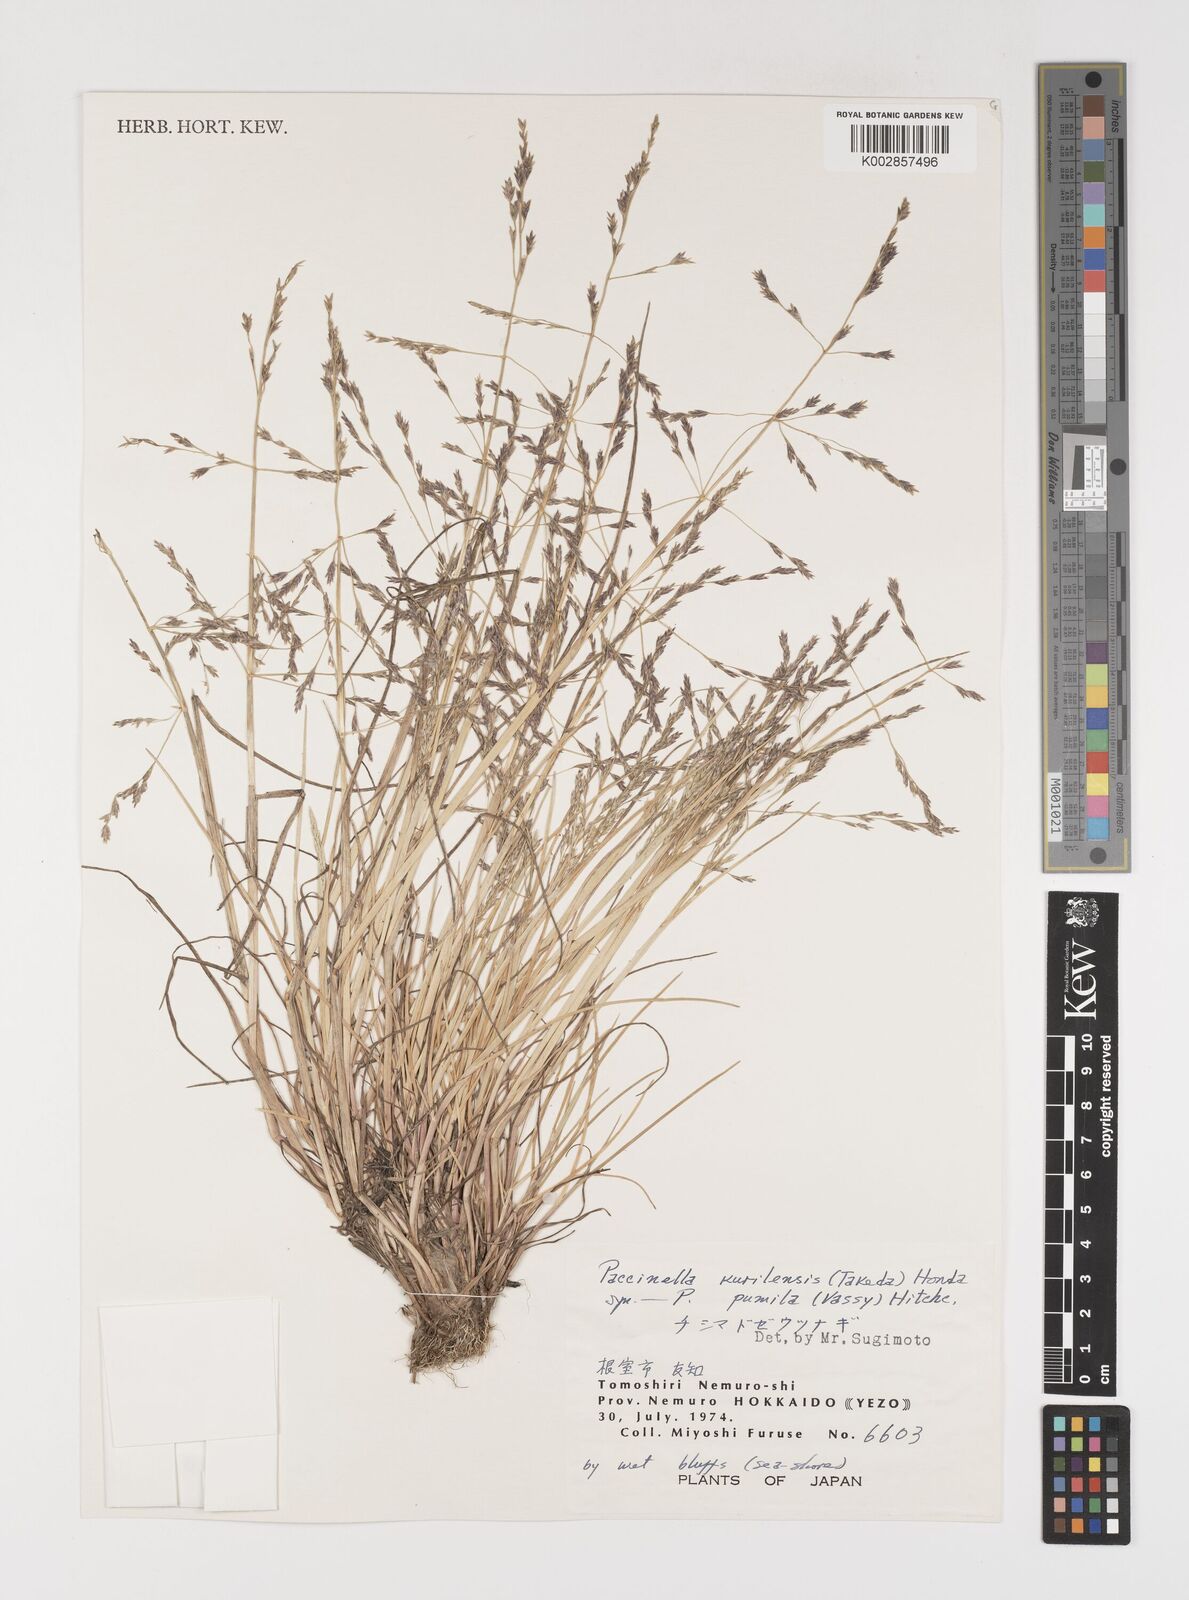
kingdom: Plantae
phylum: Tracheophyta
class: Liliopsida
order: Poales
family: Poaceae
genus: Puccinellia
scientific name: Puccinellia pumila
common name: Dwarf alkaligrass
